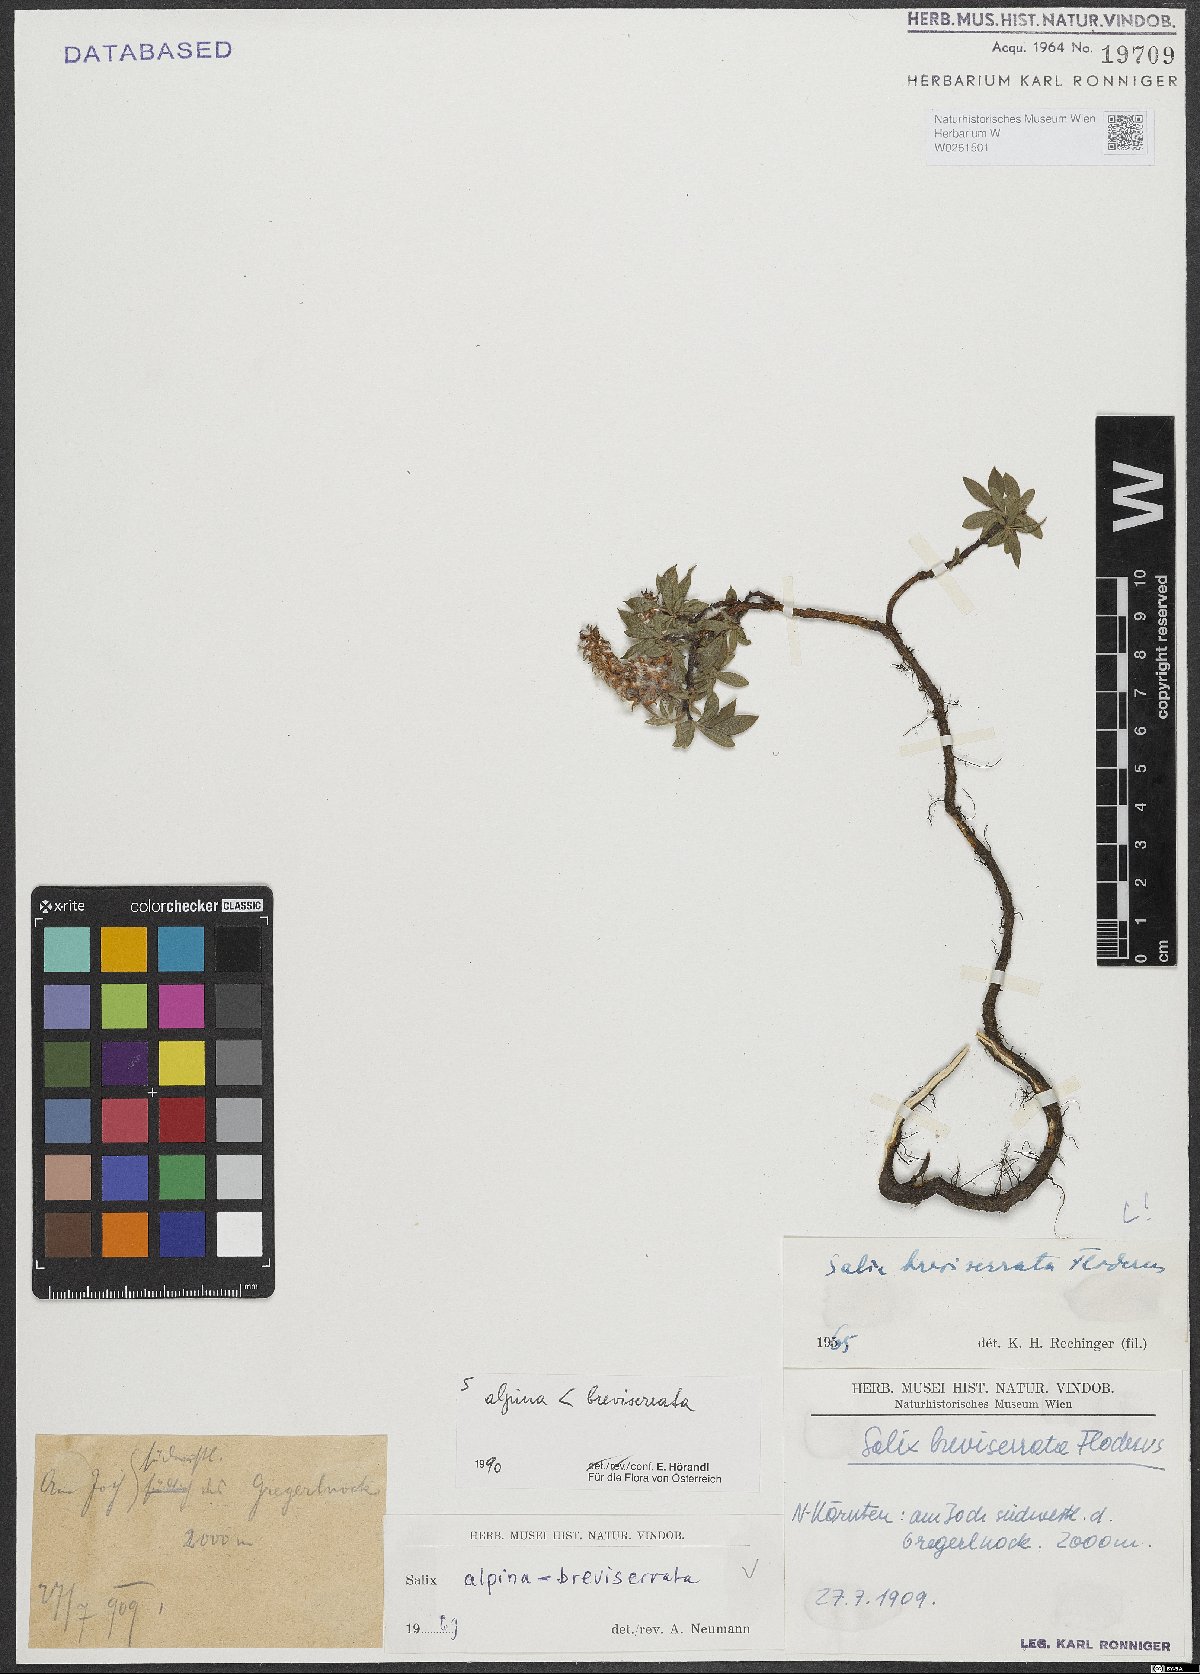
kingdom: Plantae
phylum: Tracheophyta
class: Magnoliopsida
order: Malpighiales
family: Salicaceae
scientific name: Salicaceae
